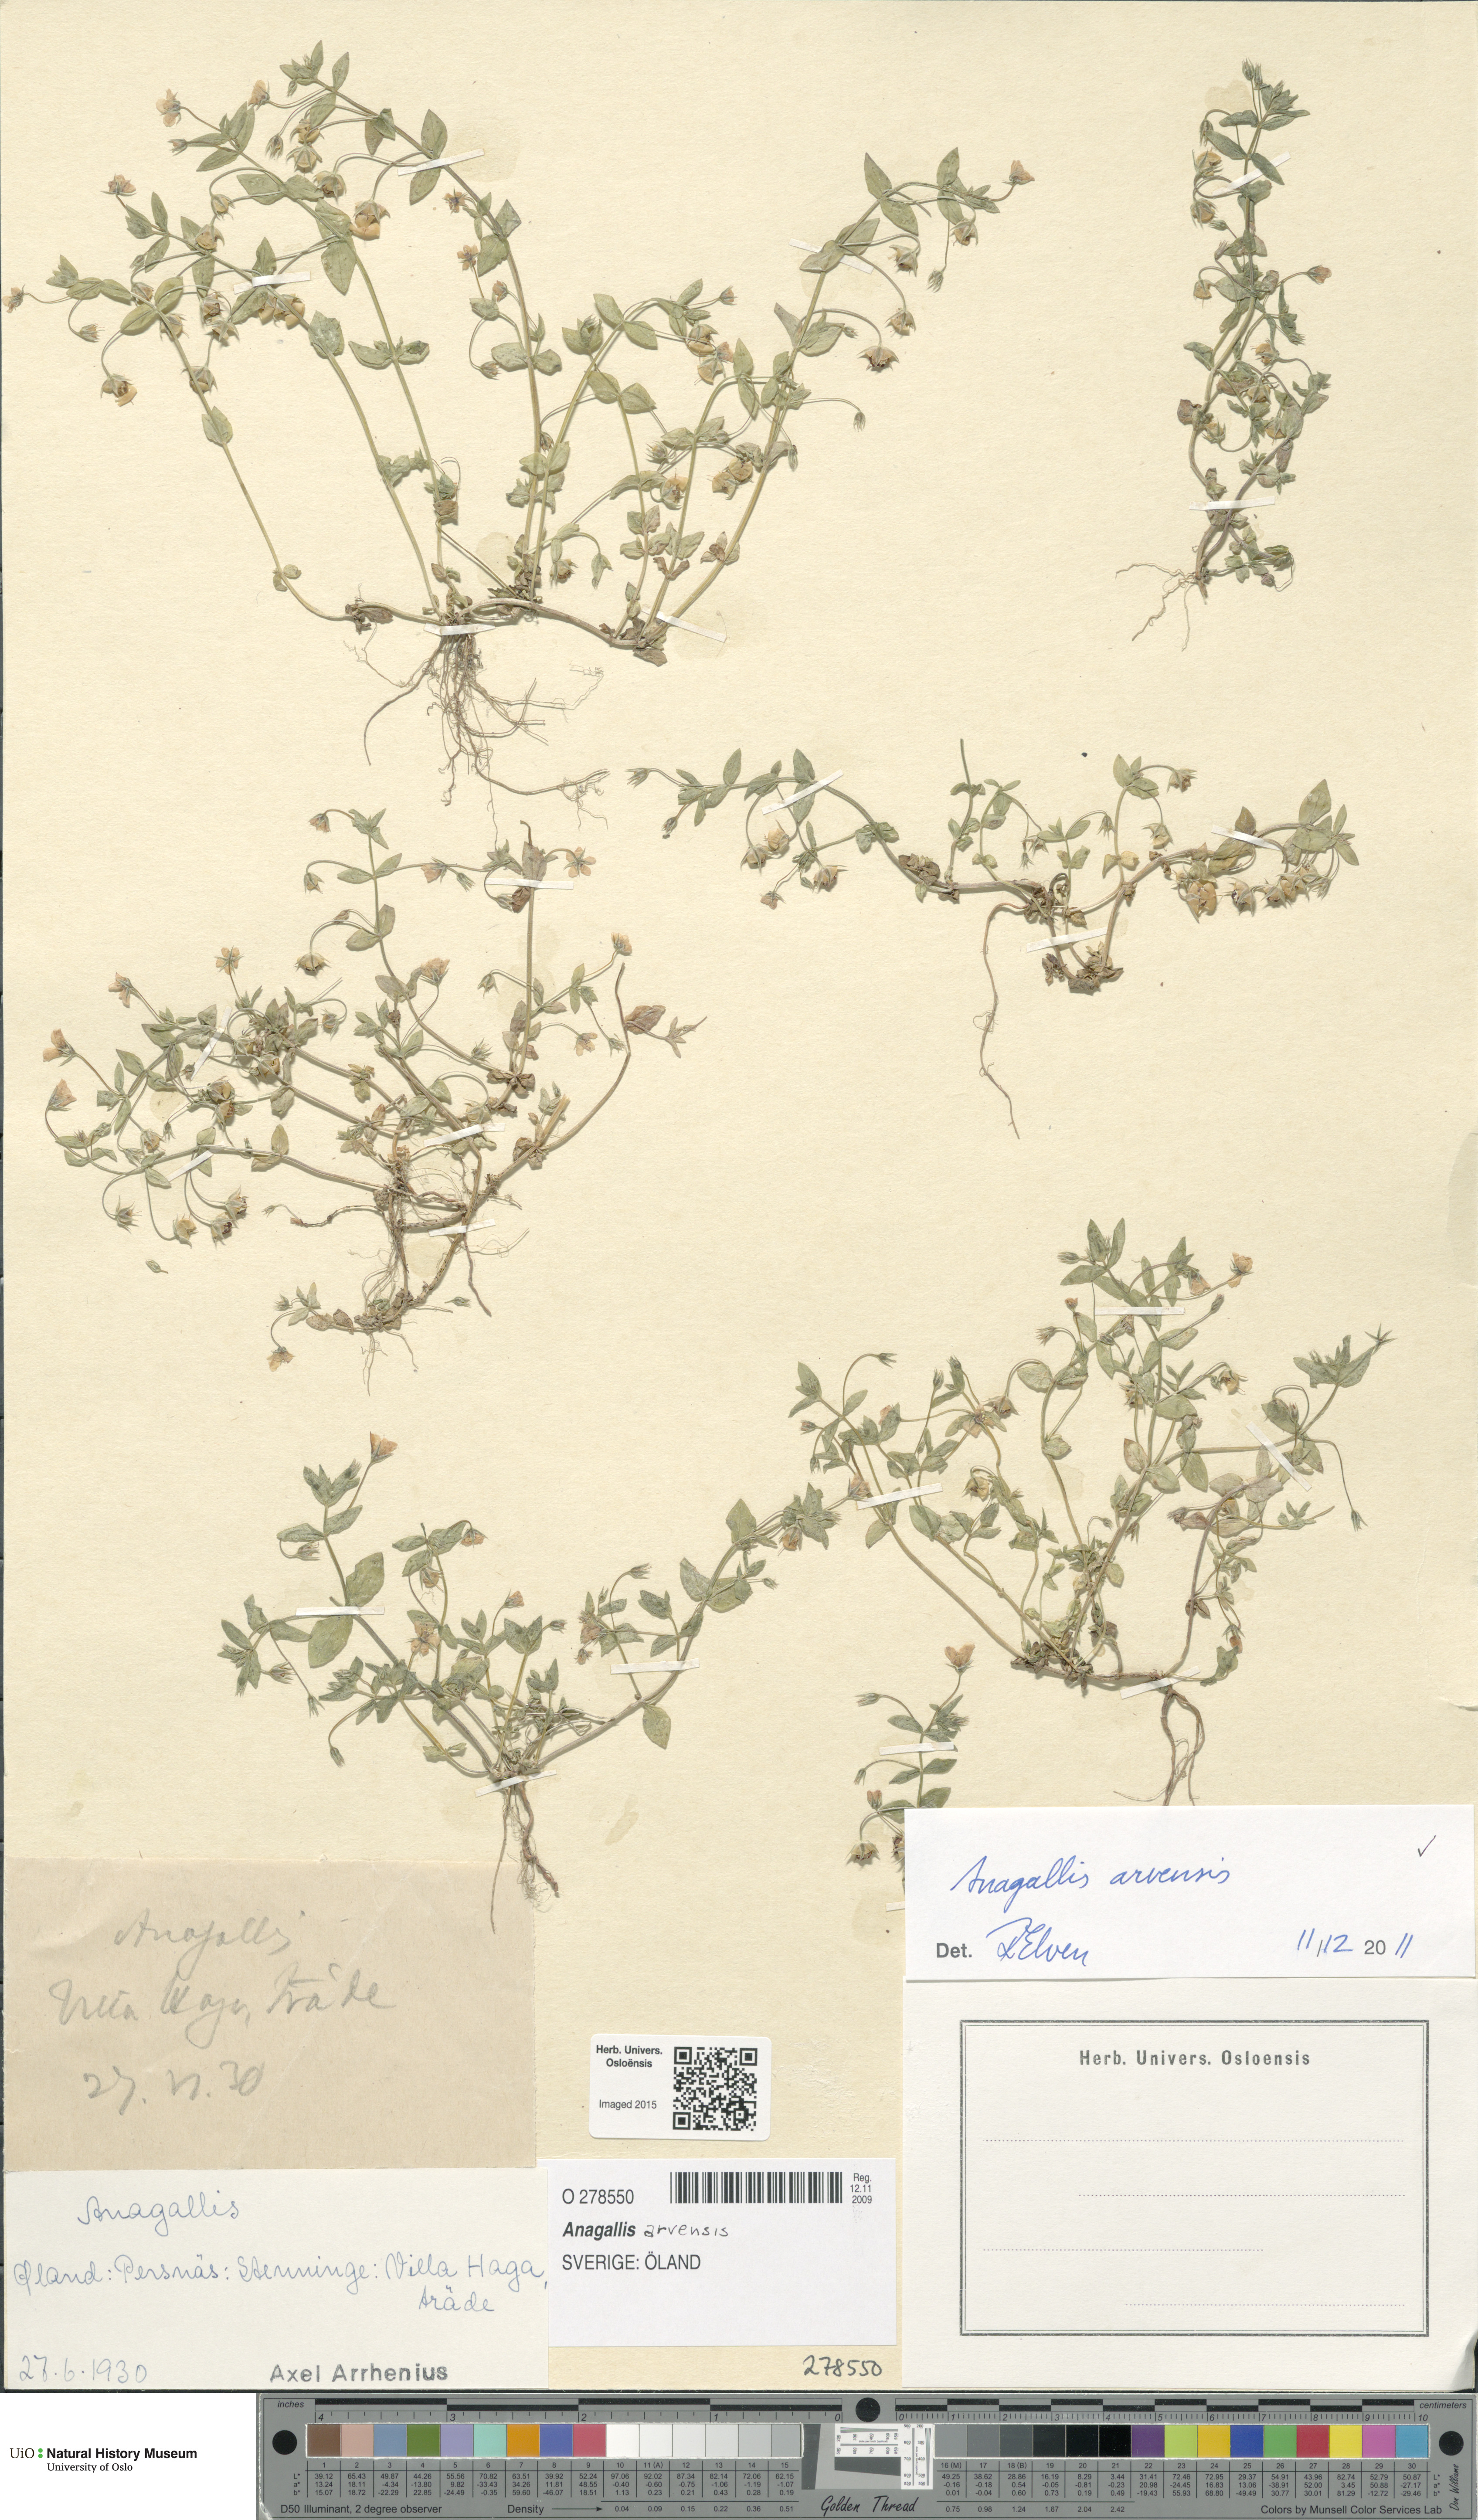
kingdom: Plantae
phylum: Tracheophyta
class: Magnoliopsida
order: Ericales
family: Primulaceae
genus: Lysimachia
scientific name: Lysimachia arvensis
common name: Scarlet pimpernel
